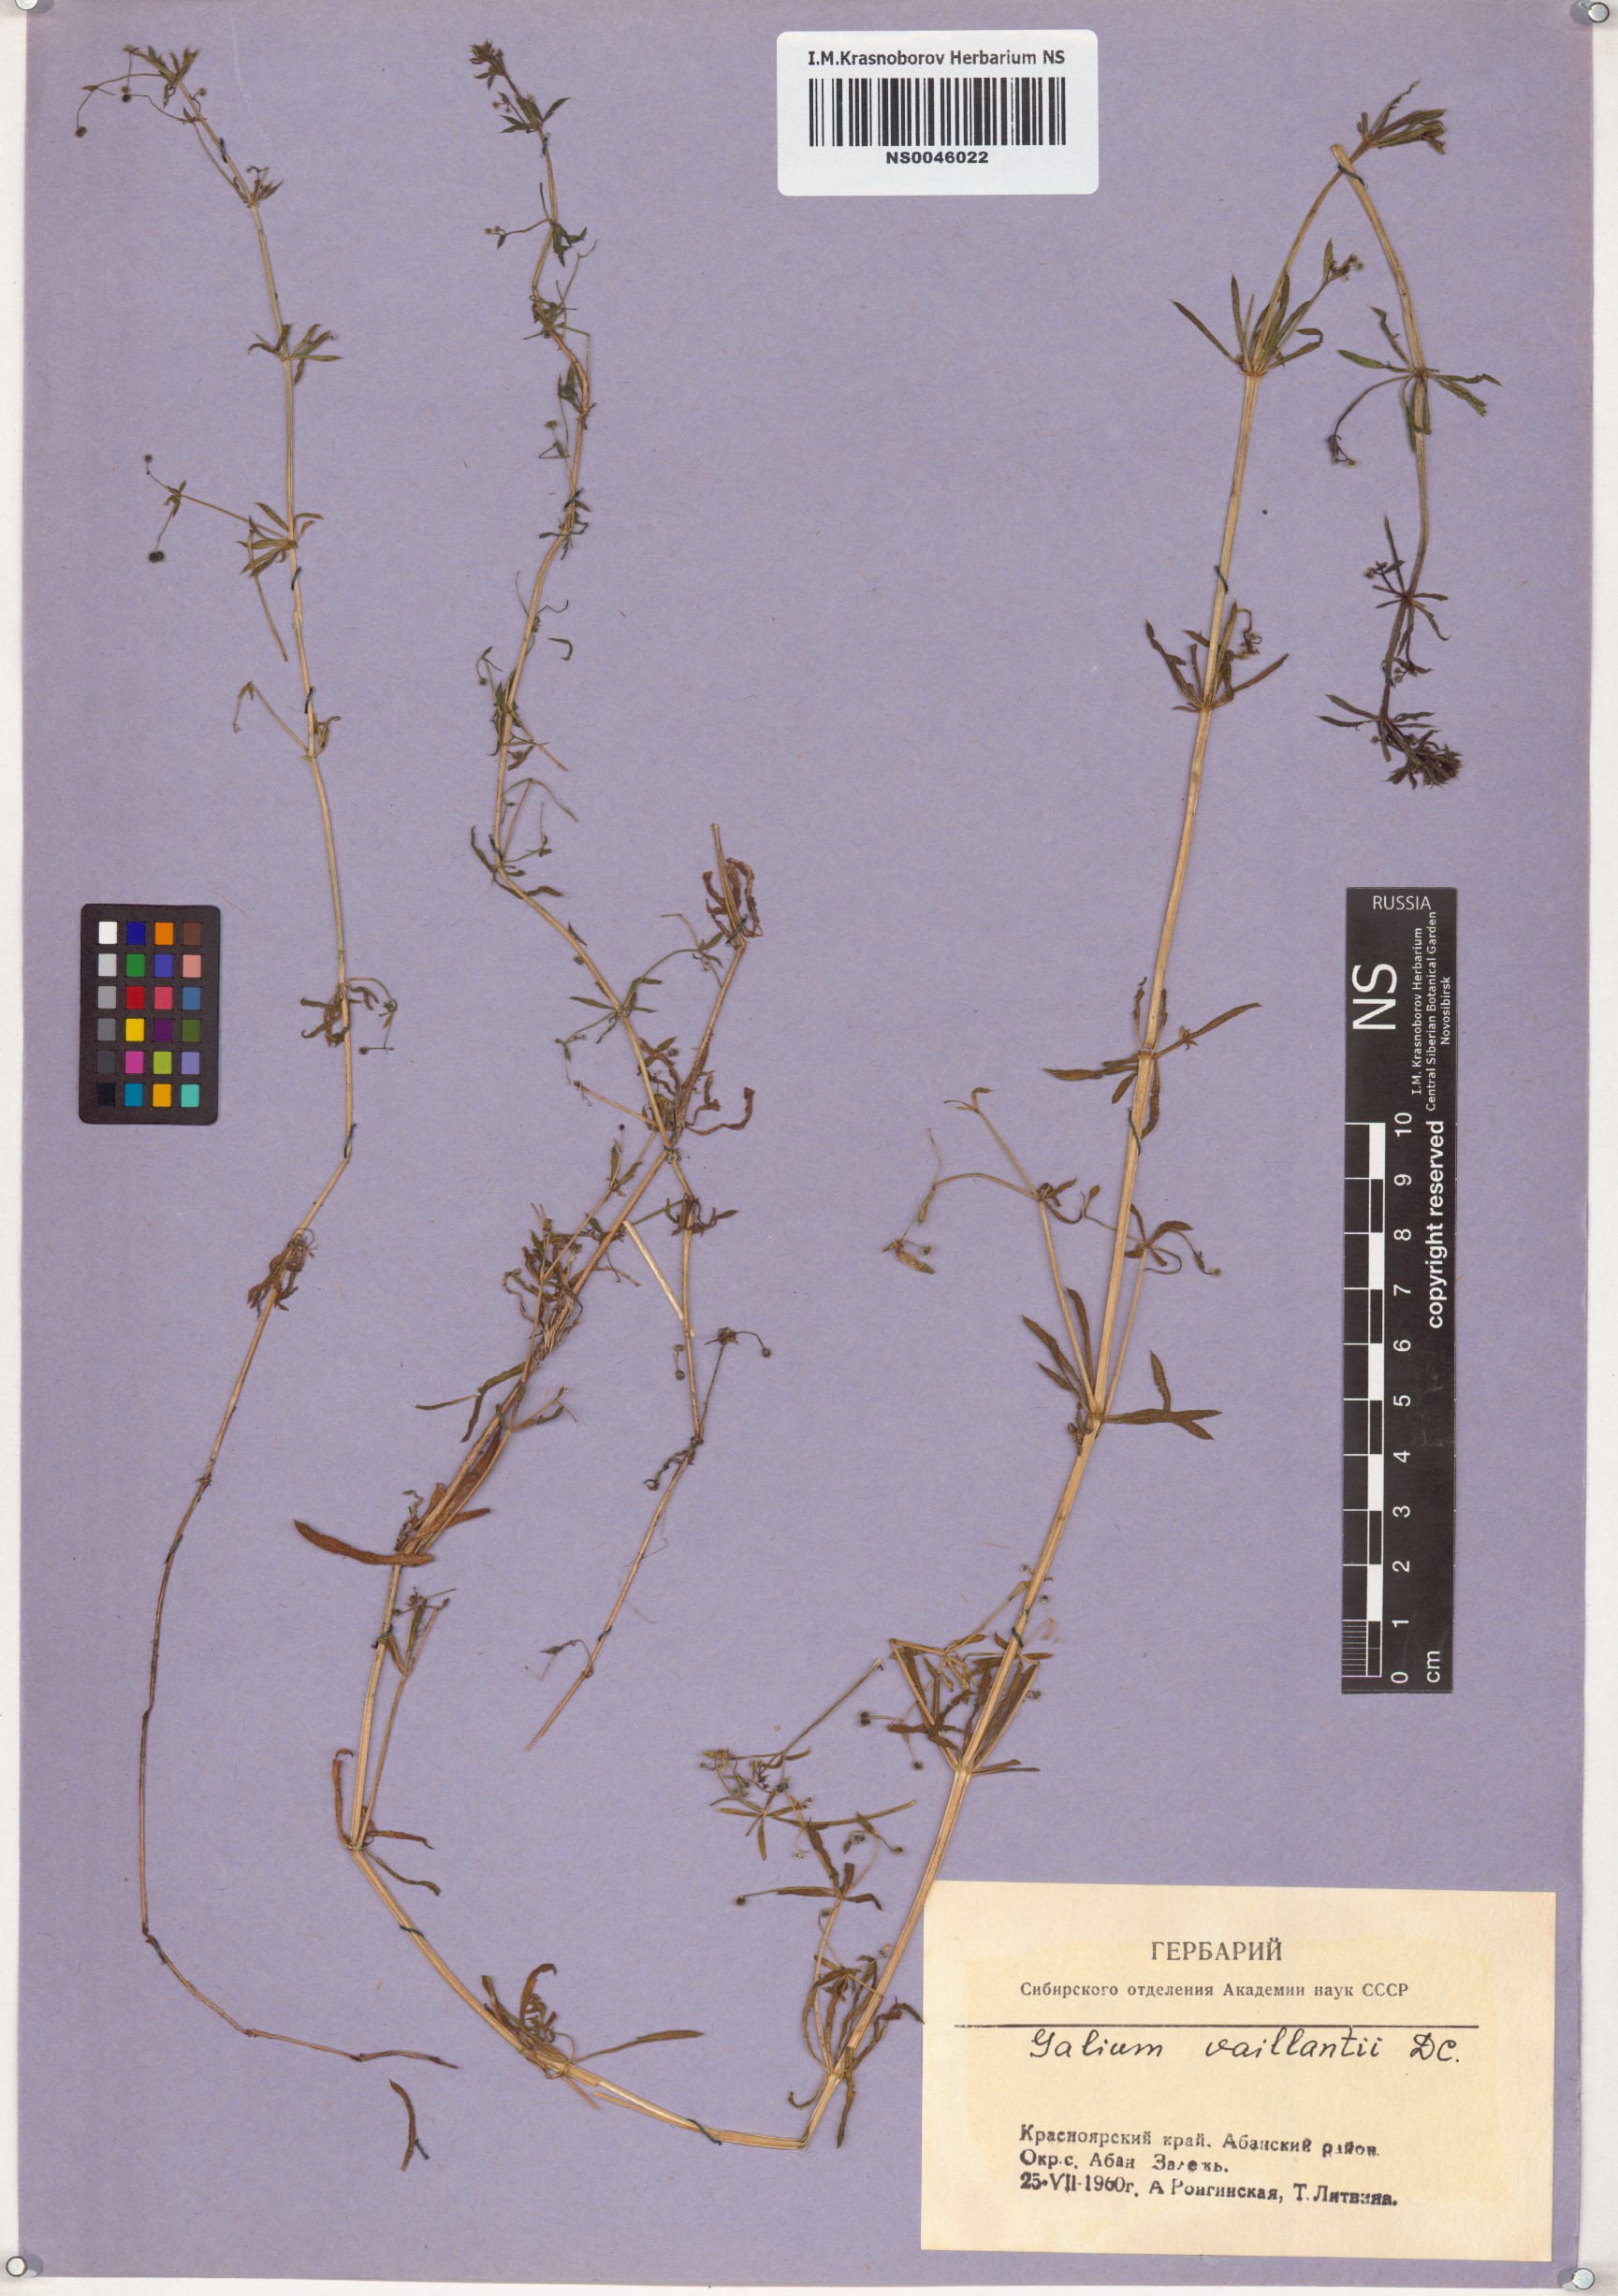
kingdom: Plantae
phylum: Tracheophyta
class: Magnoliopsida
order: Gentianales
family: Rubiaceae
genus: Galium
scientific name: Galium spurium
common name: False cleavers
